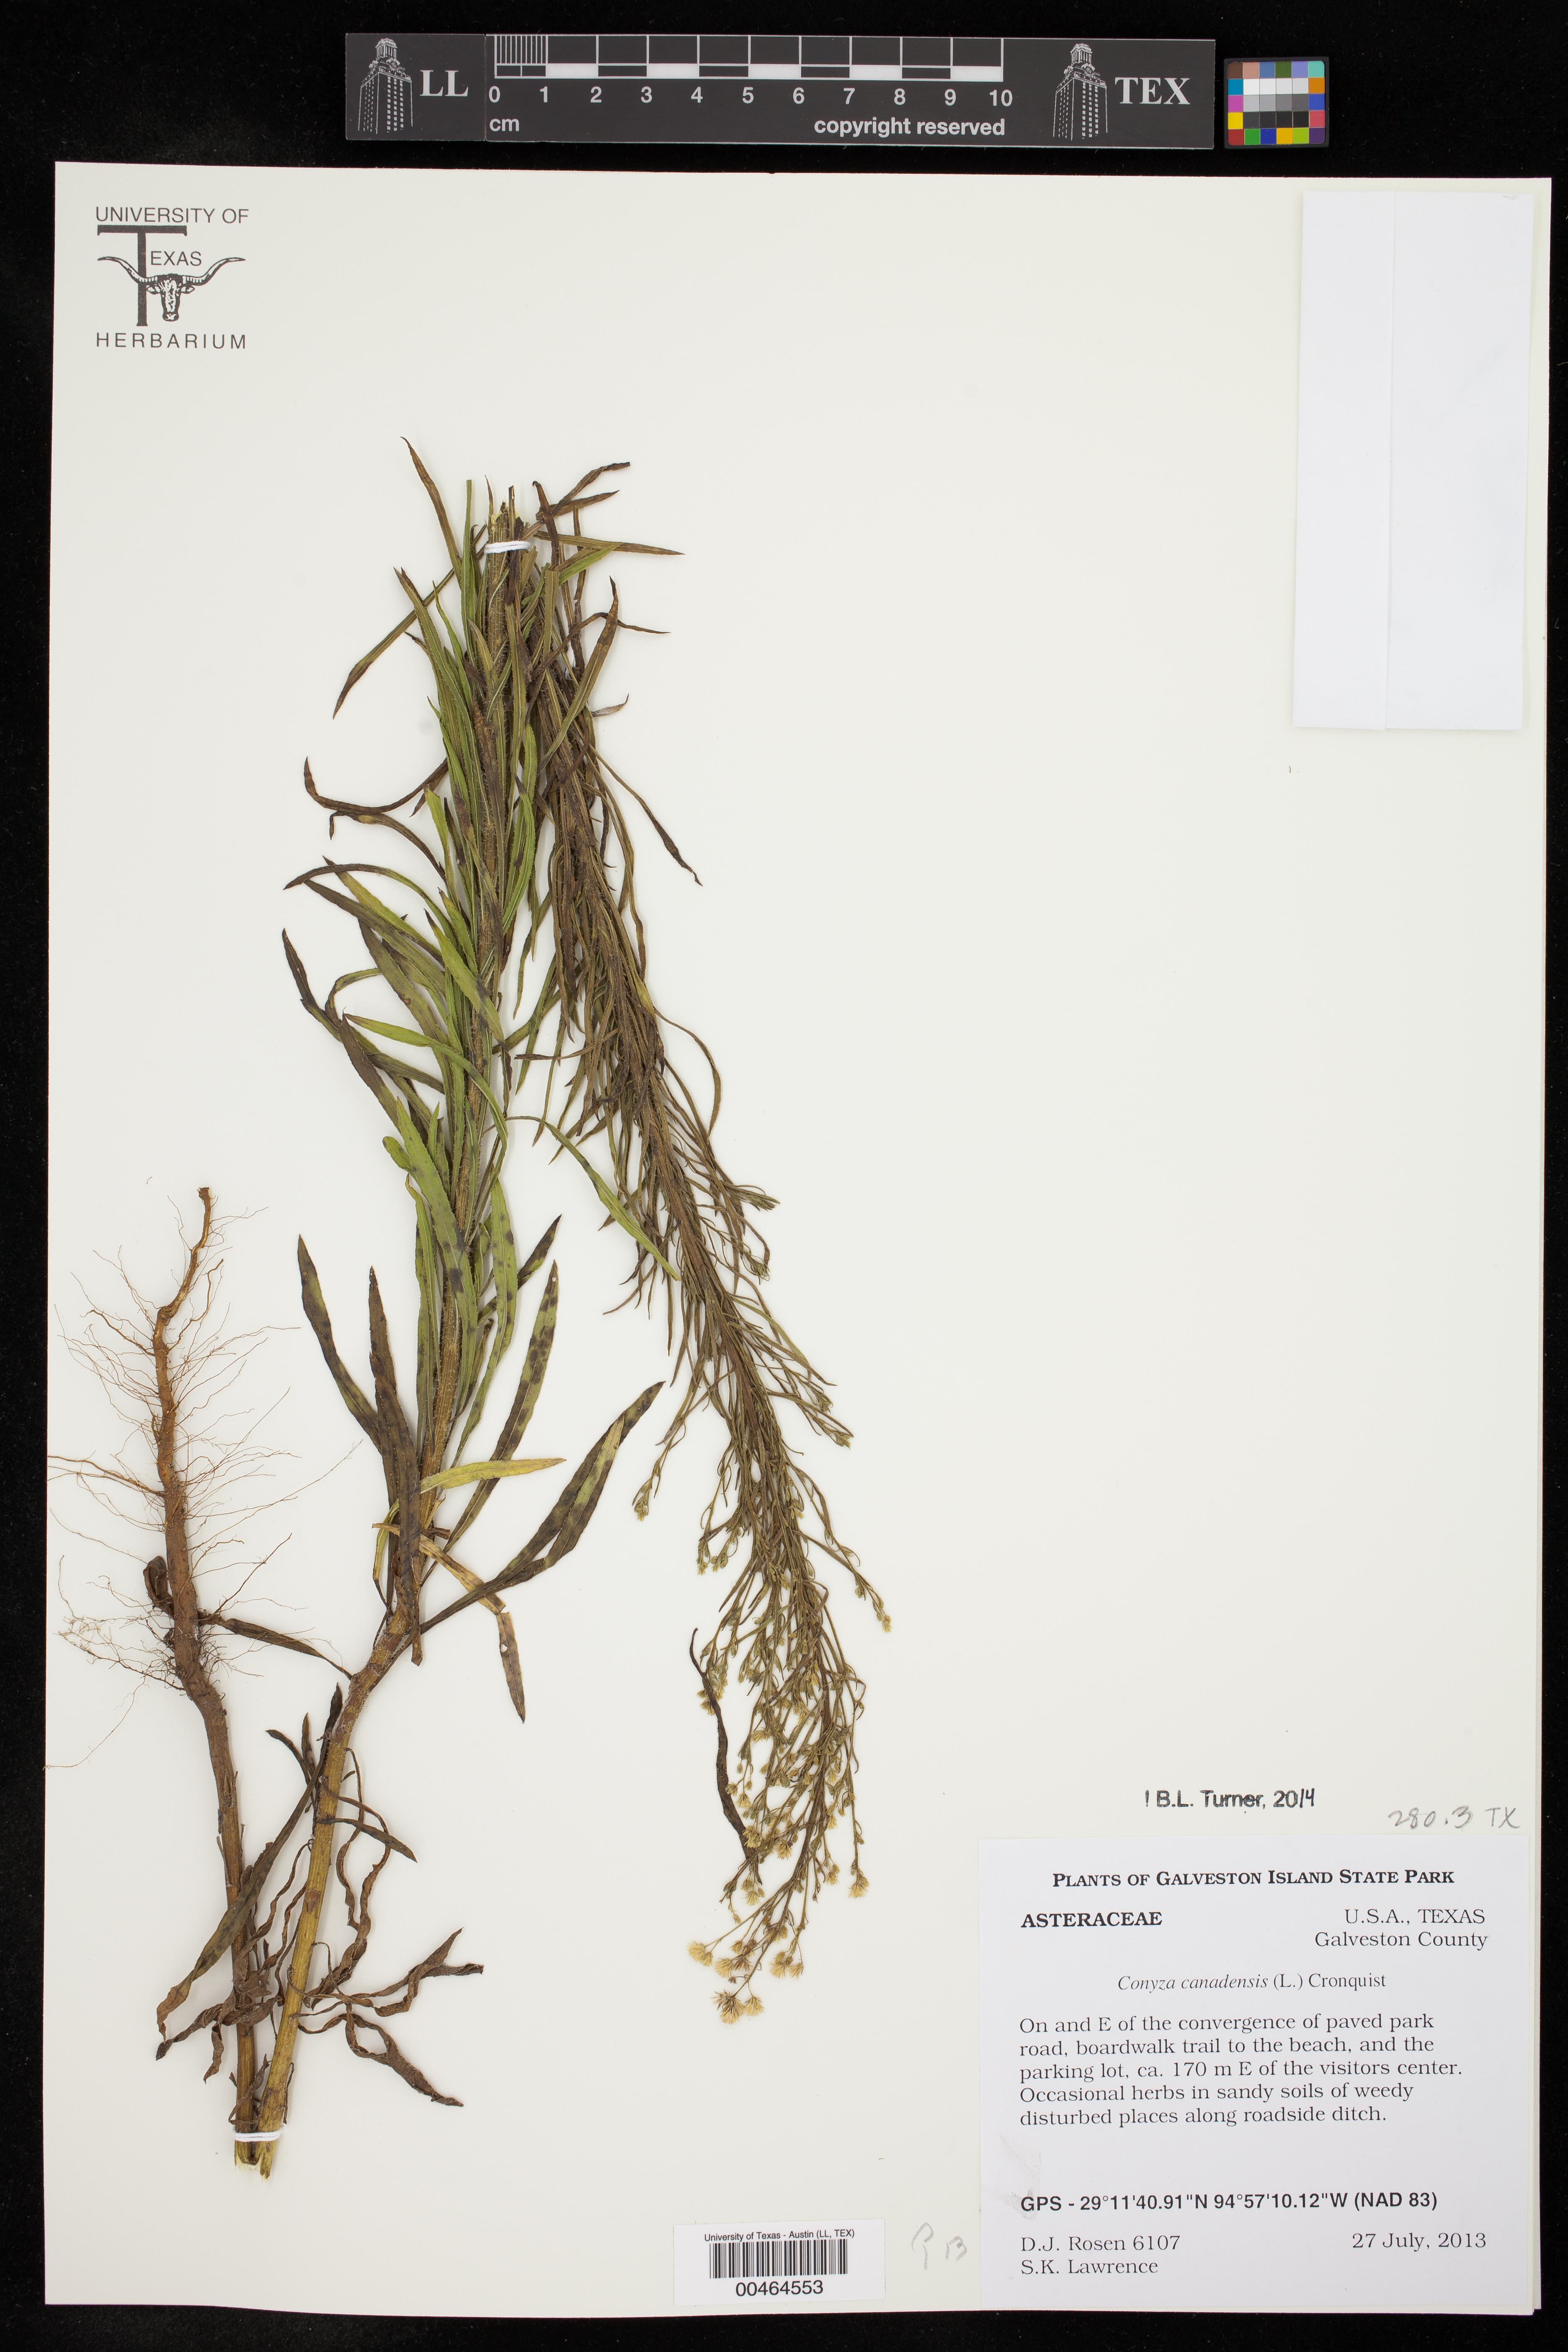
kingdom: Plantae
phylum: Tracheophyta
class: Magnoliopsida
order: Asterales
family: Asteraceae
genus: Erigeron
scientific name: Erigeron canadensis
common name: Canadian fleabane
